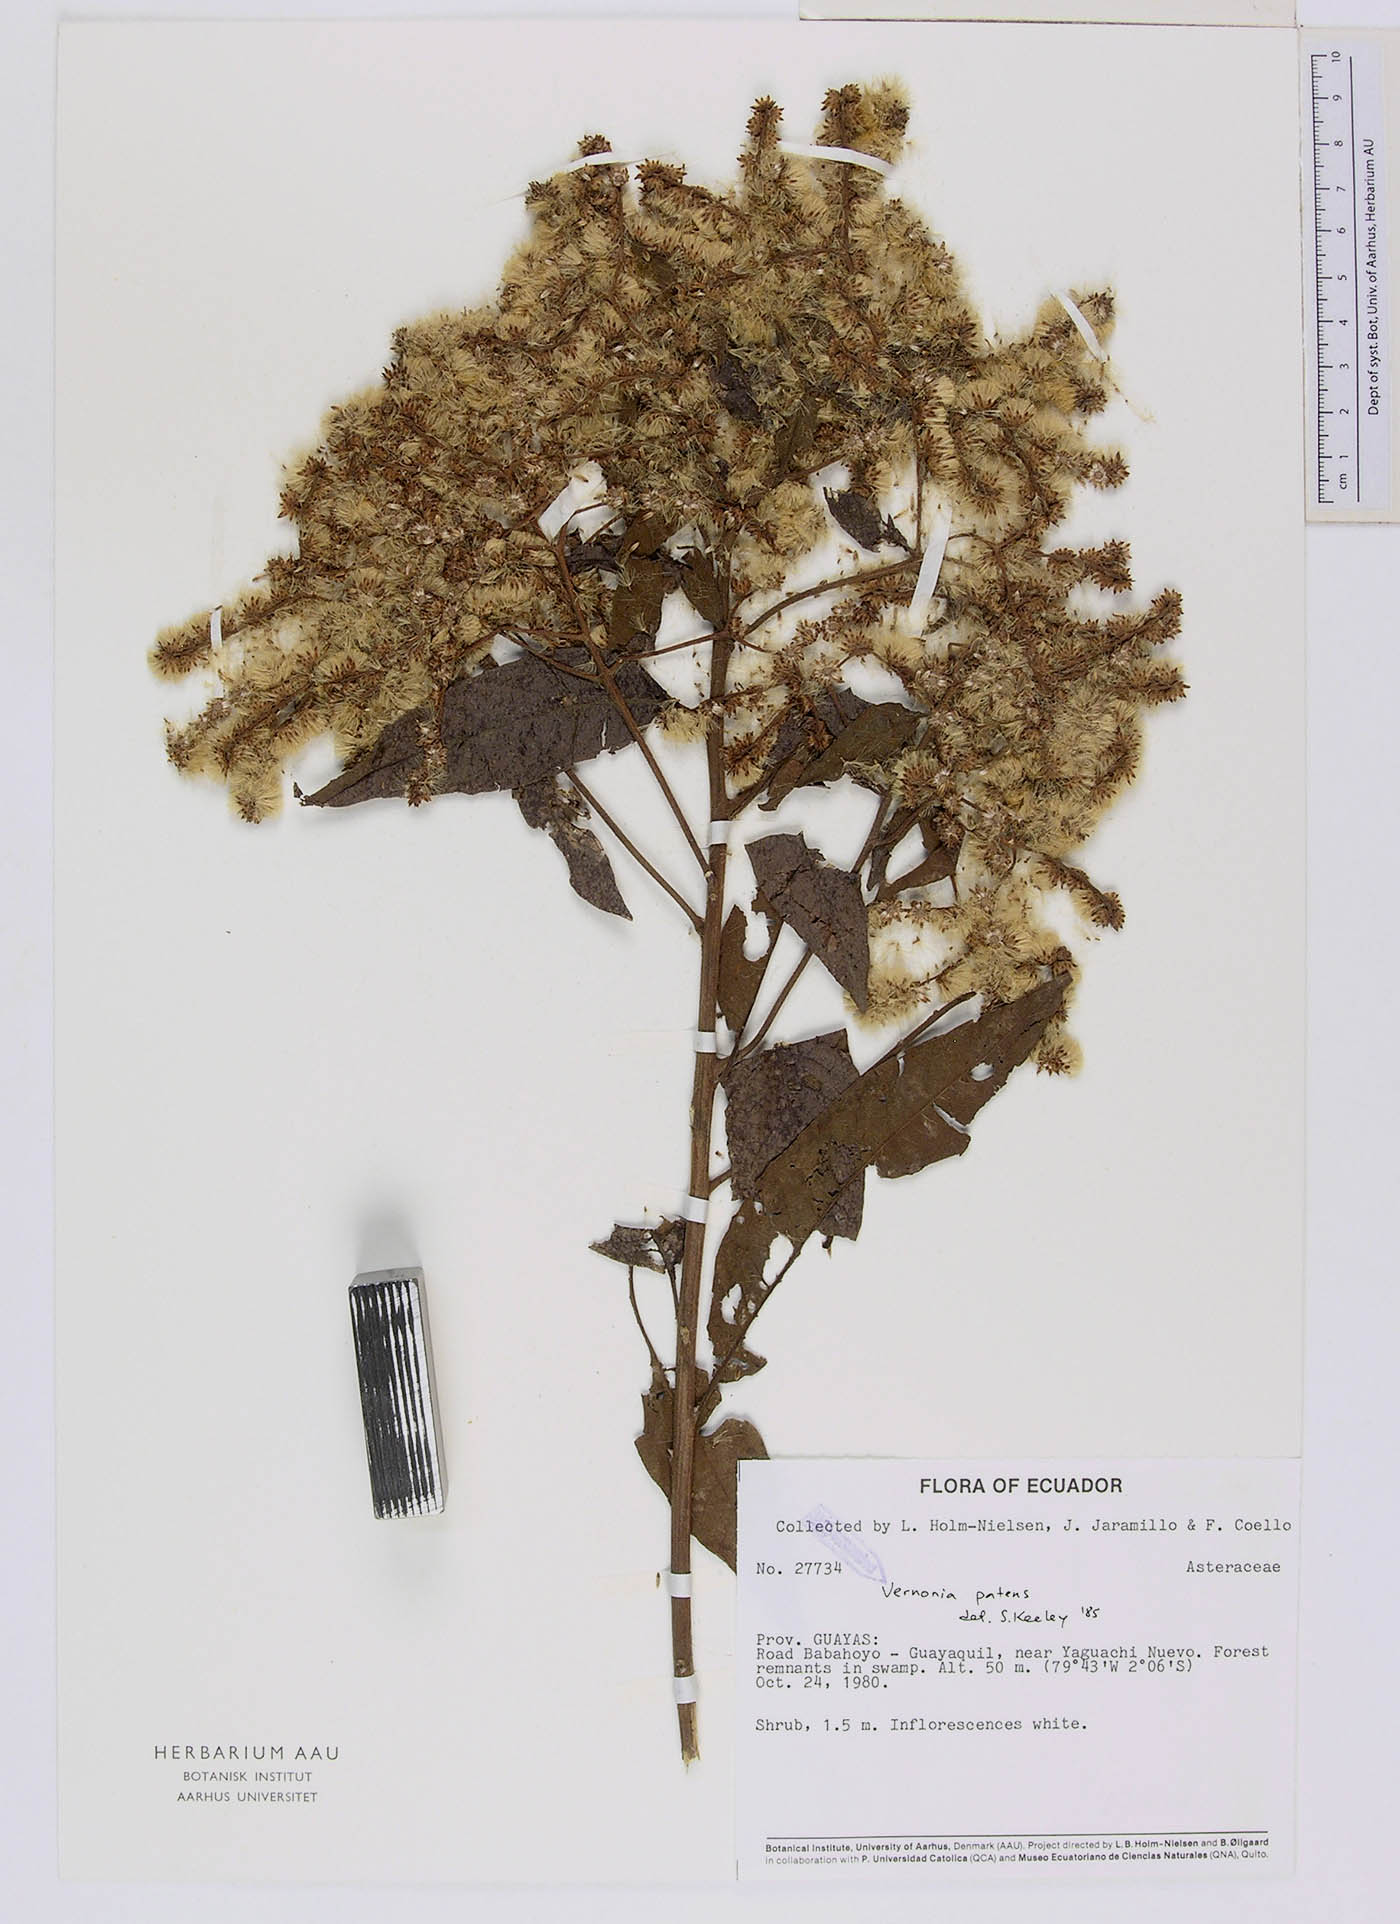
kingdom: Plantae
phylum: Tracheophyta
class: Magnoliopsida
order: Asterales
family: Asteraceae
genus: Vernonanthura
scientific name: Vernonanthura patens
